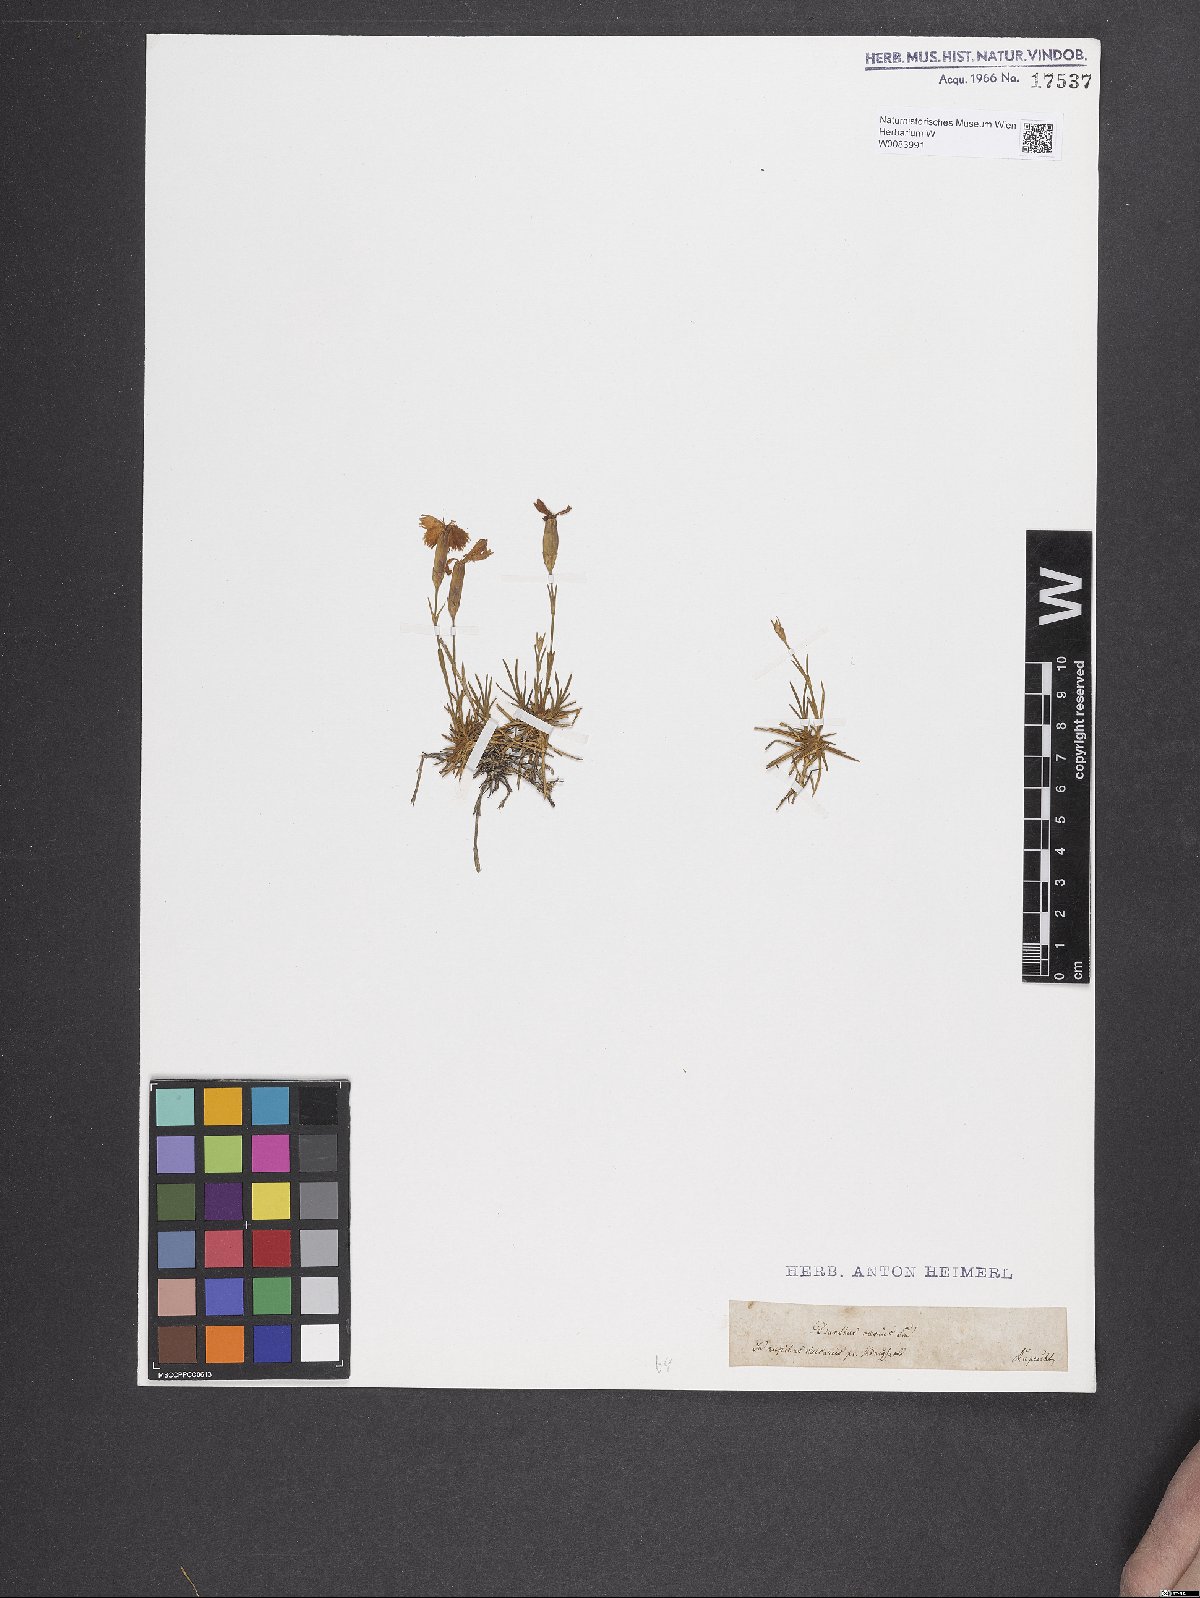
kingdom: Plantae
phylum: Tracheophyta
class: Magnoliopsida
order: Caryophyllales
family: Caryophyllaceae
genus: Dianthus
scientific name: Dianthus gratianopolitanus
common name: Cheddar pink
